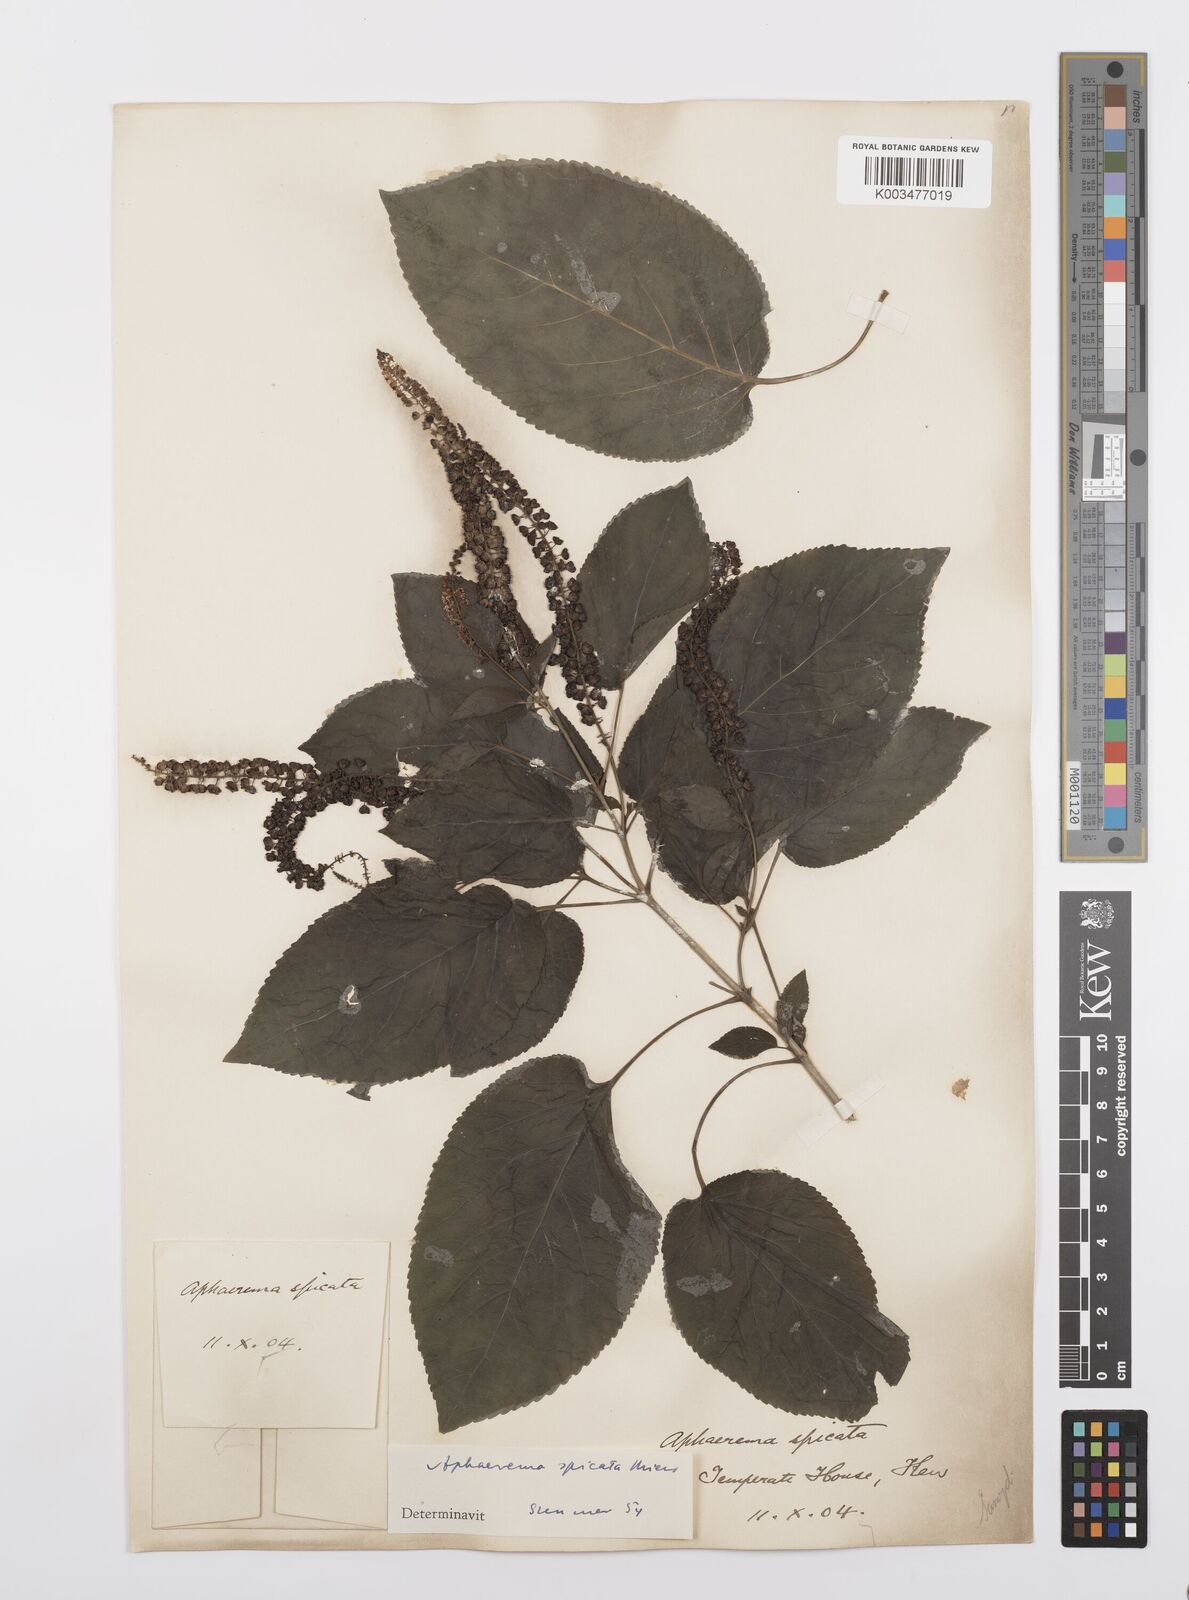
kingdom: Plantae
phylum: Tracheophyta
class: Magnoliopsida
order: Malpighiales
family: Salicaceae
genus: Abatia
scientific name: Abatia angeliana
